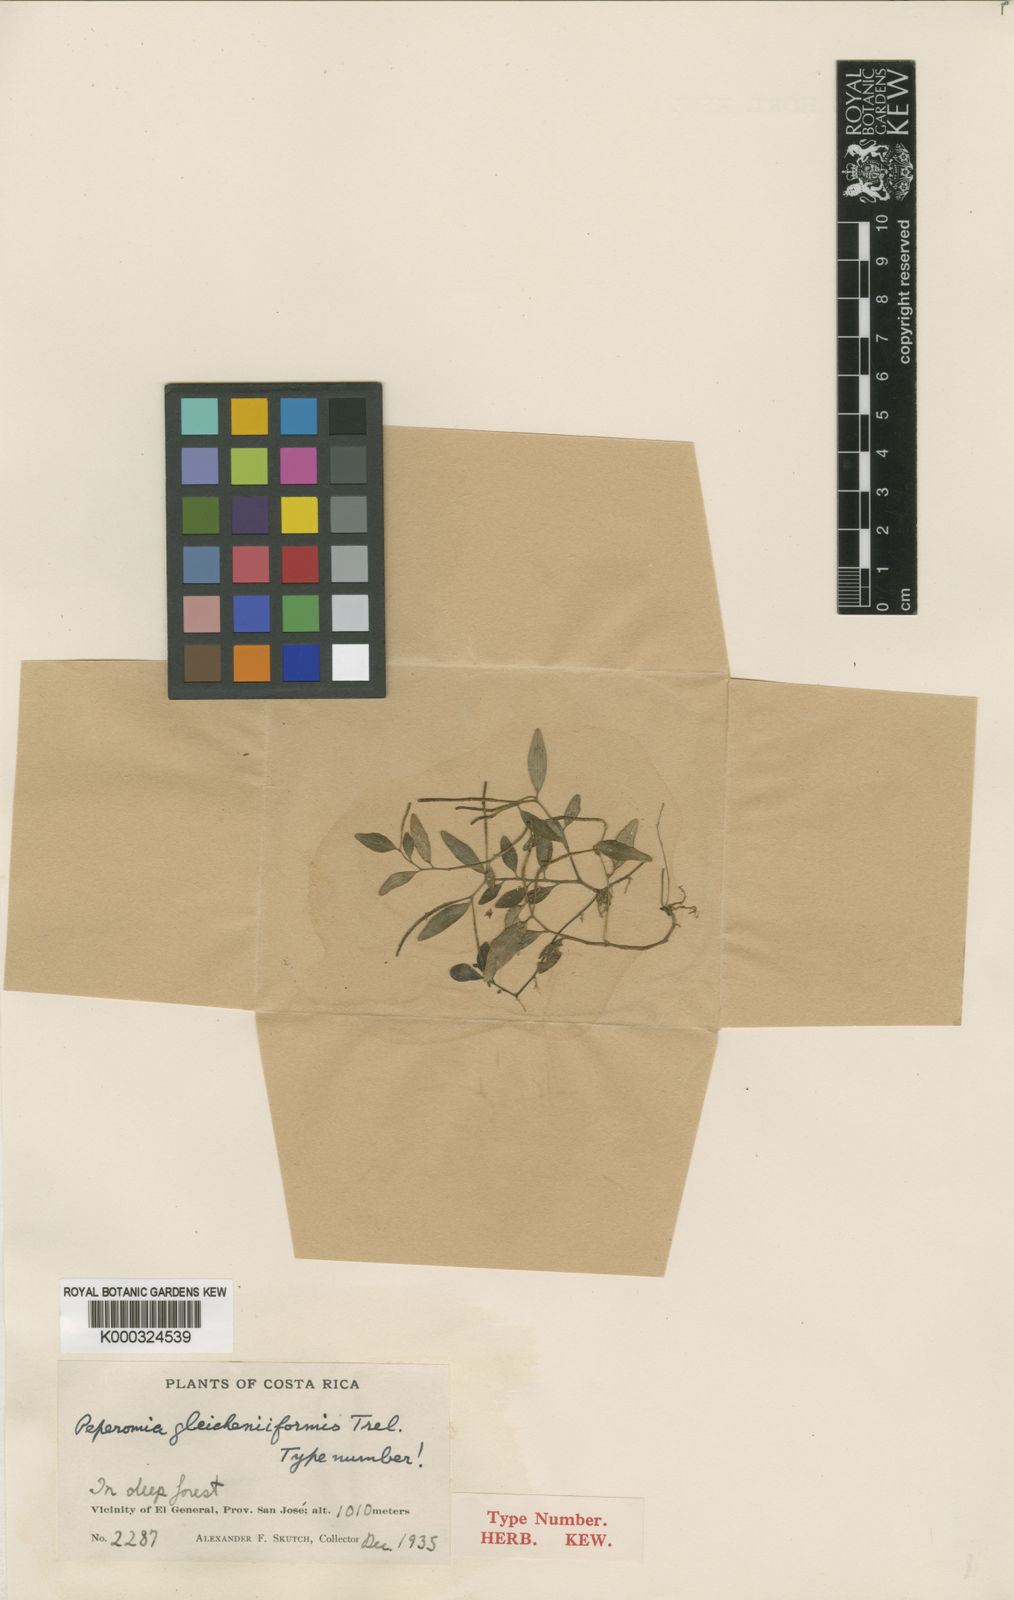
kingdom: Plantae
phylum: Tracheophyta
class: Magnoliopsida
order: Piperales
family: Piperaceae
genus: Peperomia
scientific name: Peperomia gleicheniiformis
